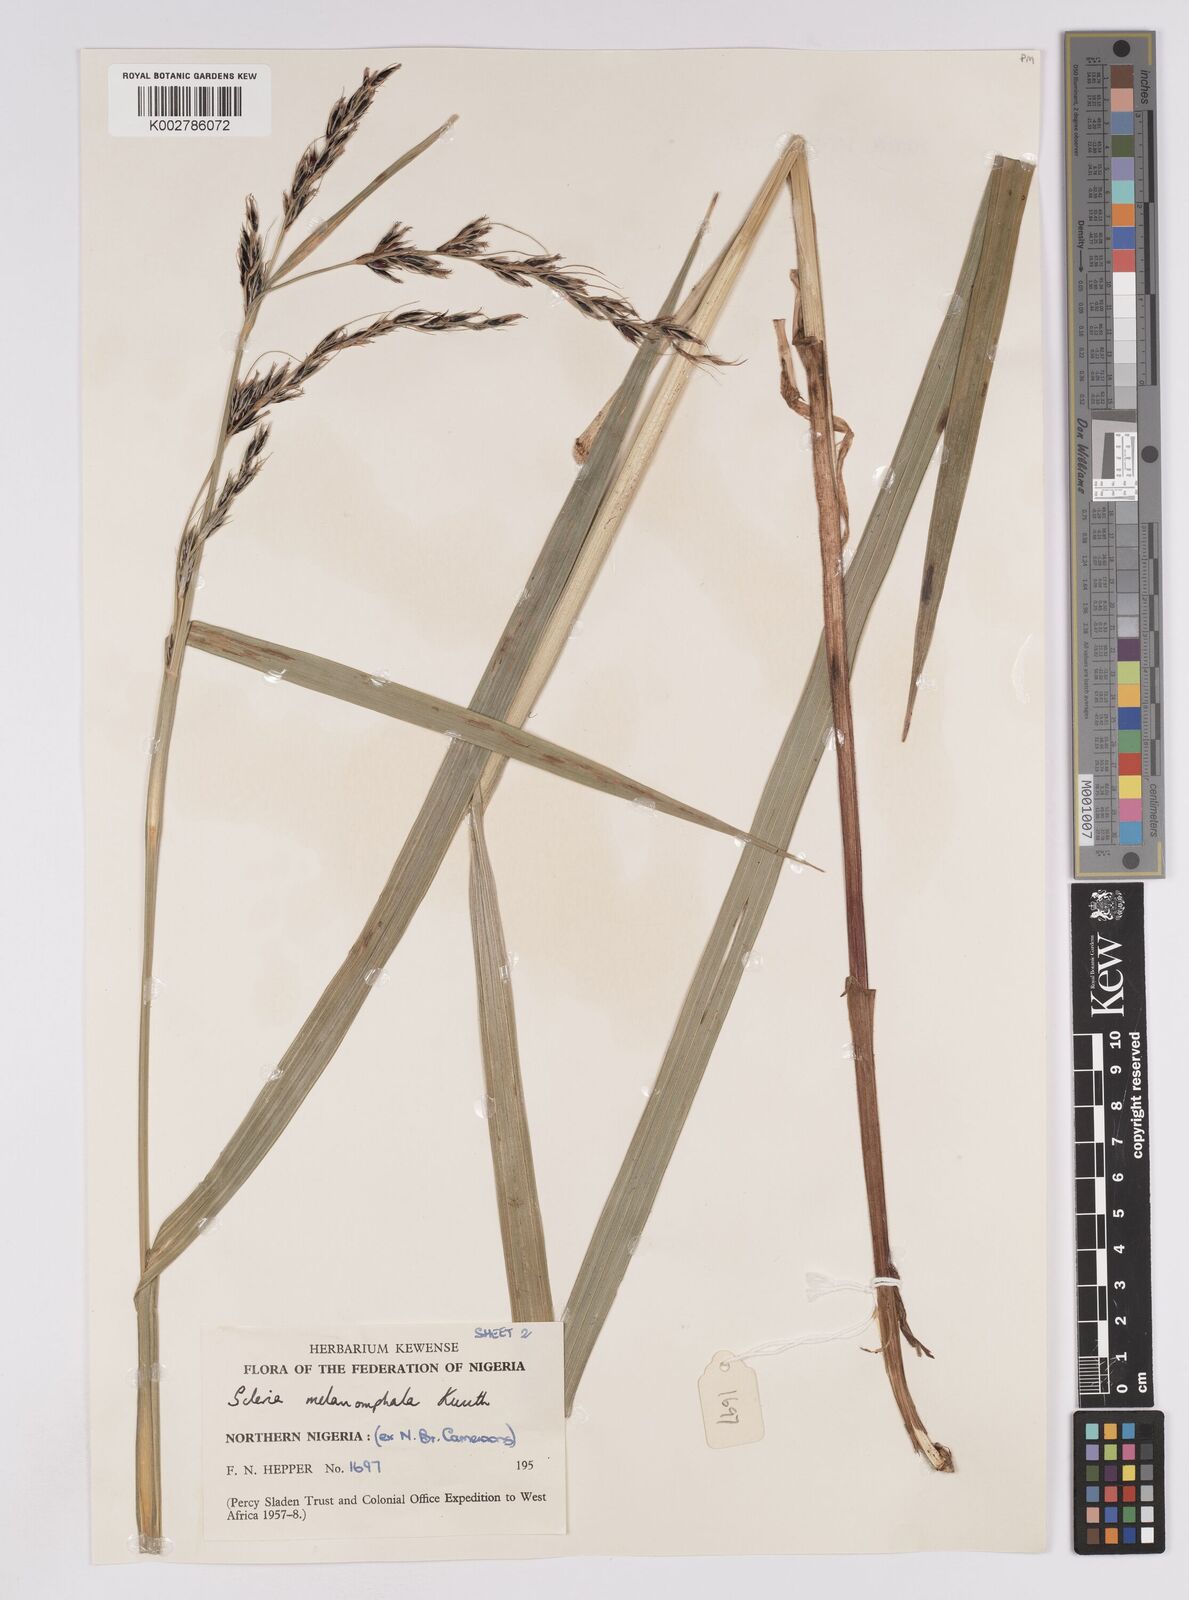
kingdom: Plantae
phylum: Tracheophyta
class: Liliopsida
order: Poales
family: Cyperaceae
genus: Scleria
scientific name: Scleria melanomphala
